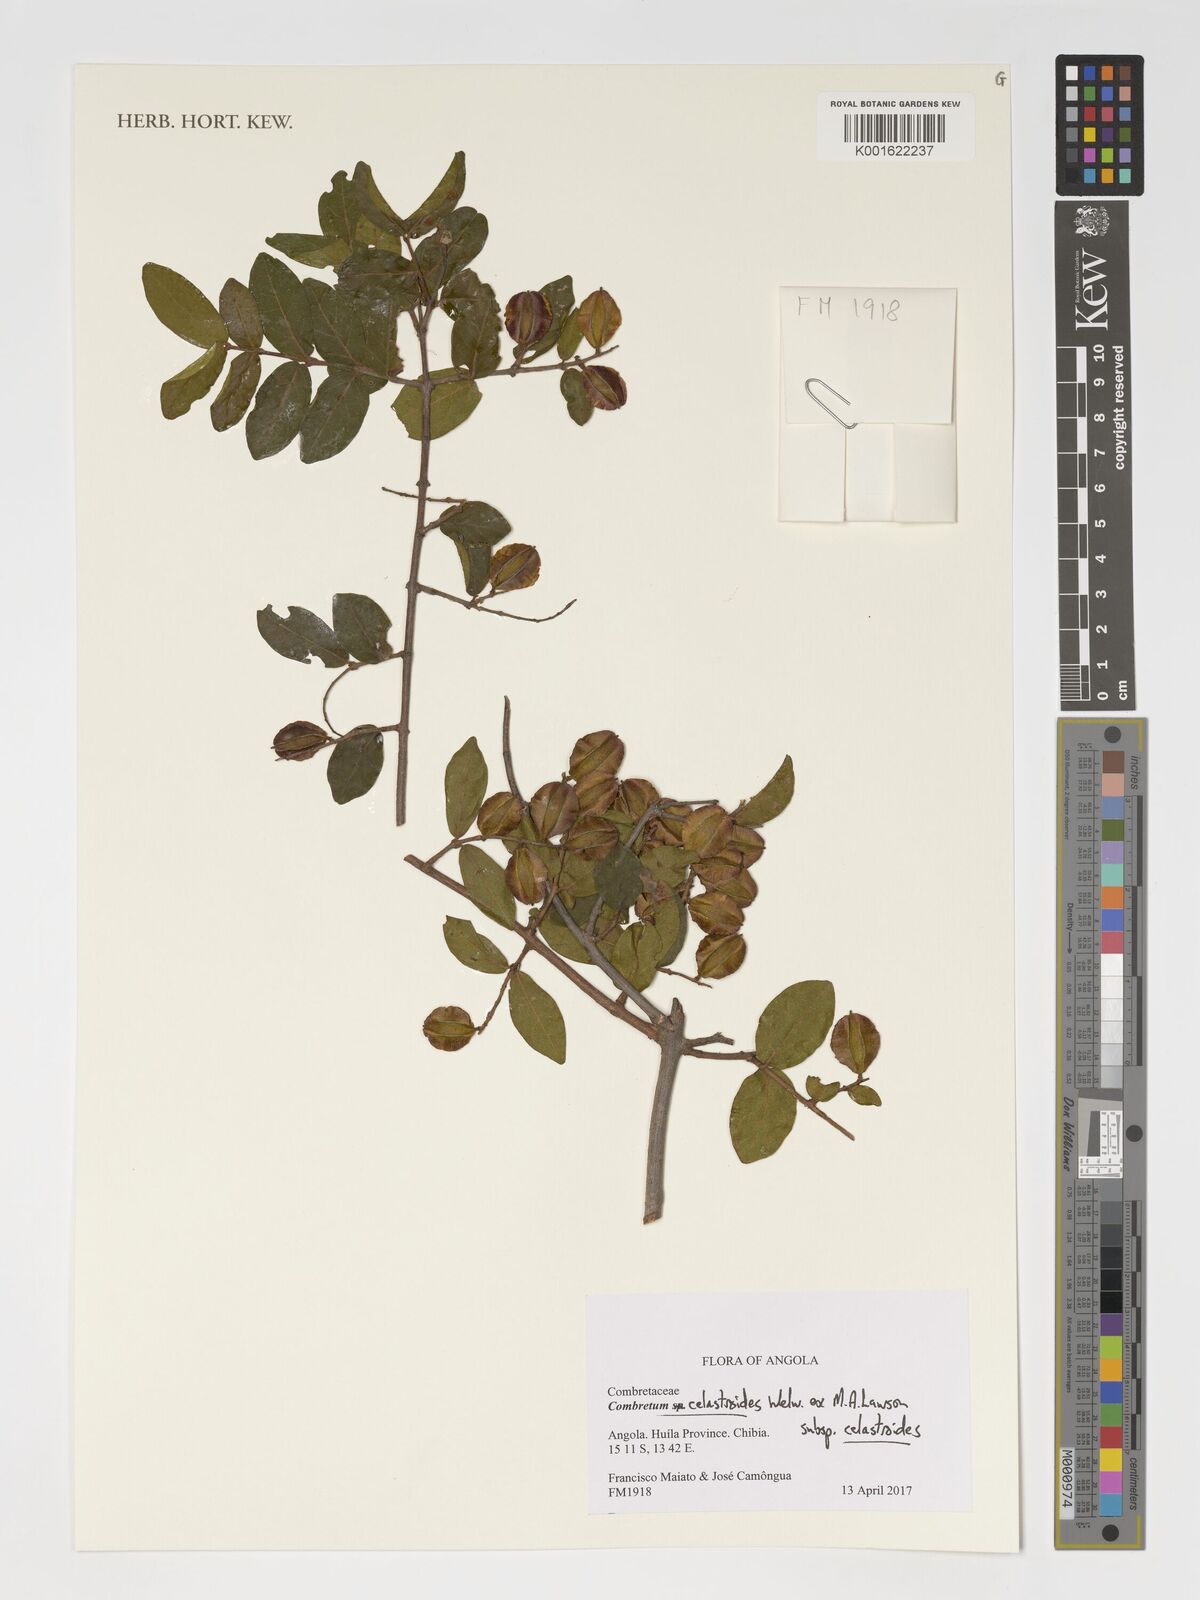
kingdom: Plantae
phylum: Tracheophyta
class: Magnoliopsida
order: Myrtales
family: Combretaceae
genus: Combretum
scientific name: Combretum celastroides
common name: Jesse-bush combretum
